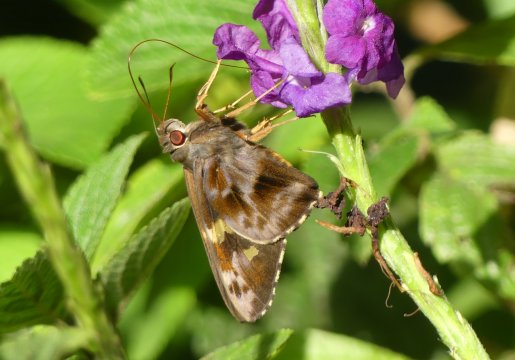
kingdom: Animalia
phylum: Arthropoda
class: Insecta
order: Lepidoptera
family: Hesperiidae
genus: Perichares
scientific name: Perichares philetes
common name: Green-backed Ruby-eye
